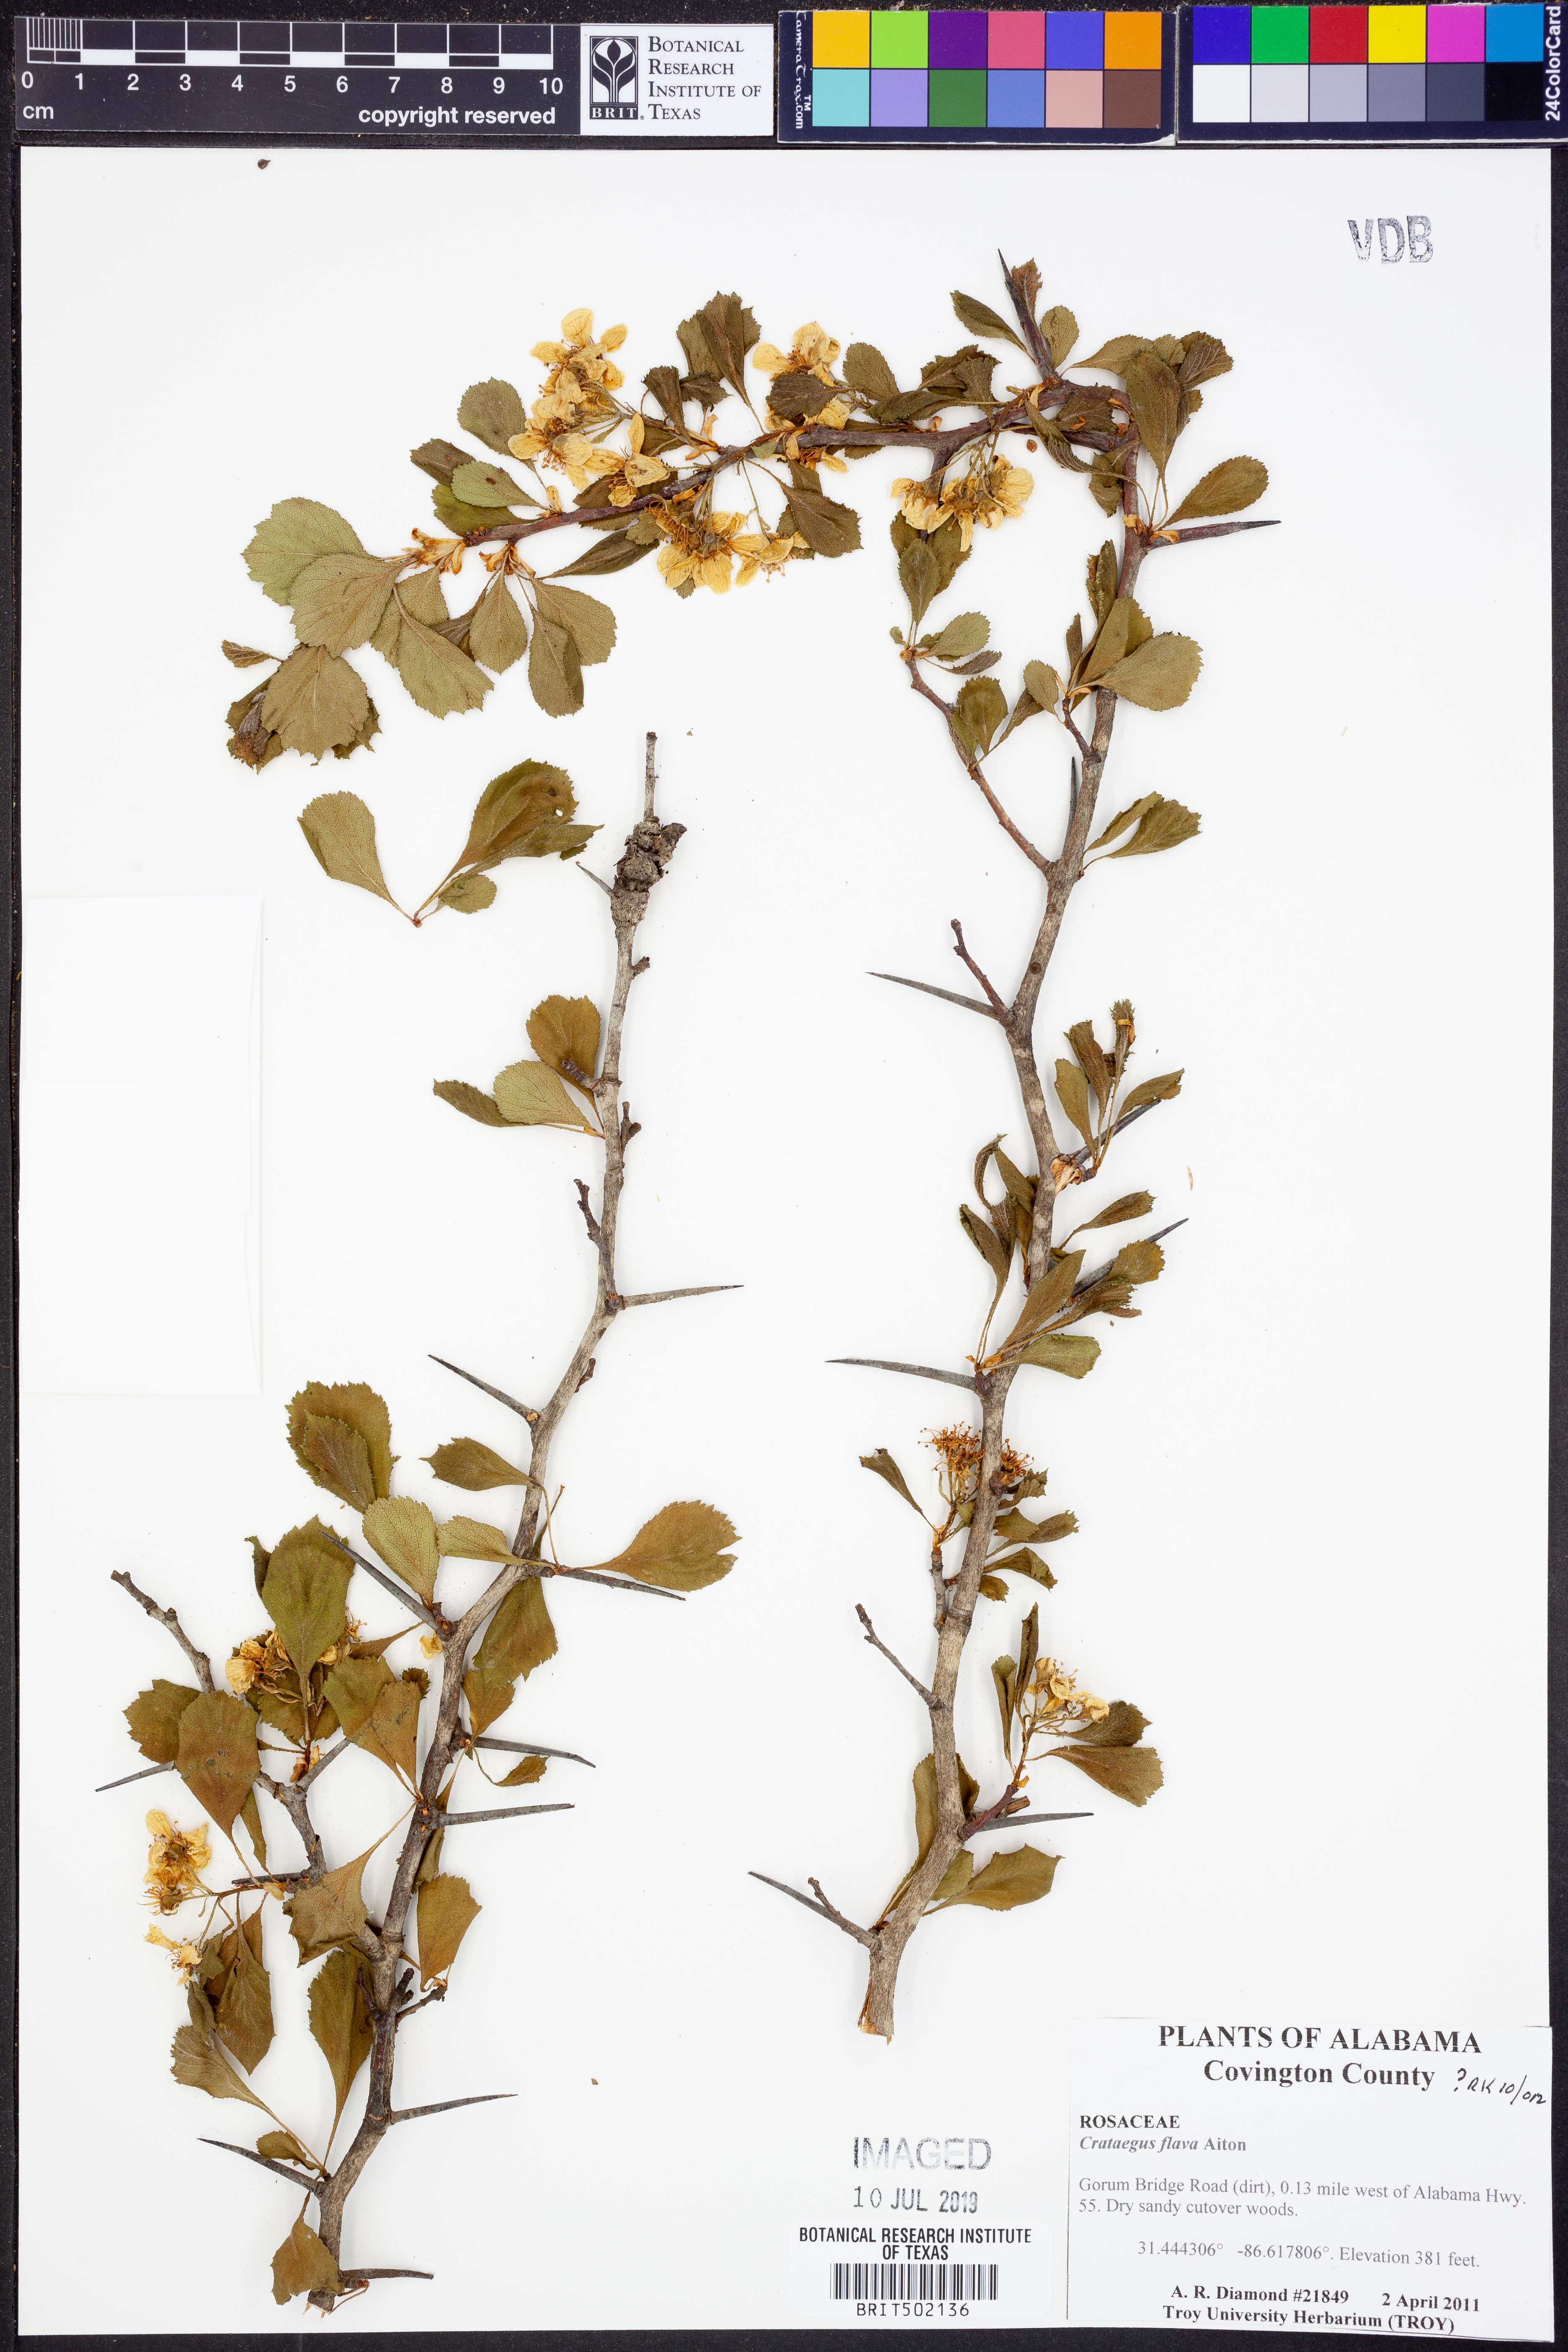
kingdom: Plantae
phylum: Tracheophyta
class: Magnoliopsida
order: Rosales
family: Rosaceae
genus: Crataegus
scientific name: Crataegus flava
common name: Yellow hawthorn
